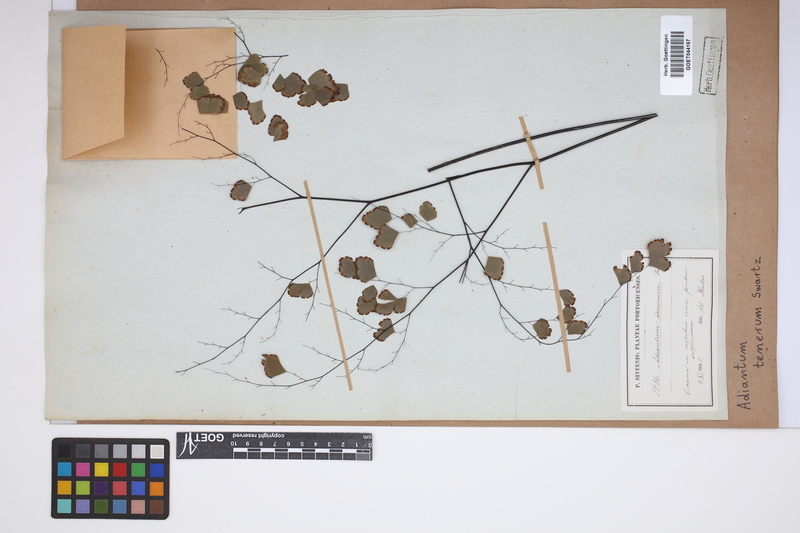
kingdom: Plantae
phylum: Tracheophyta
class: Polypodiopsida
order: Polypodiales
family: Pteridaceae
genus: Adiantum
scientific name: Adiantum tenerum
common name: Fan maidenhair
